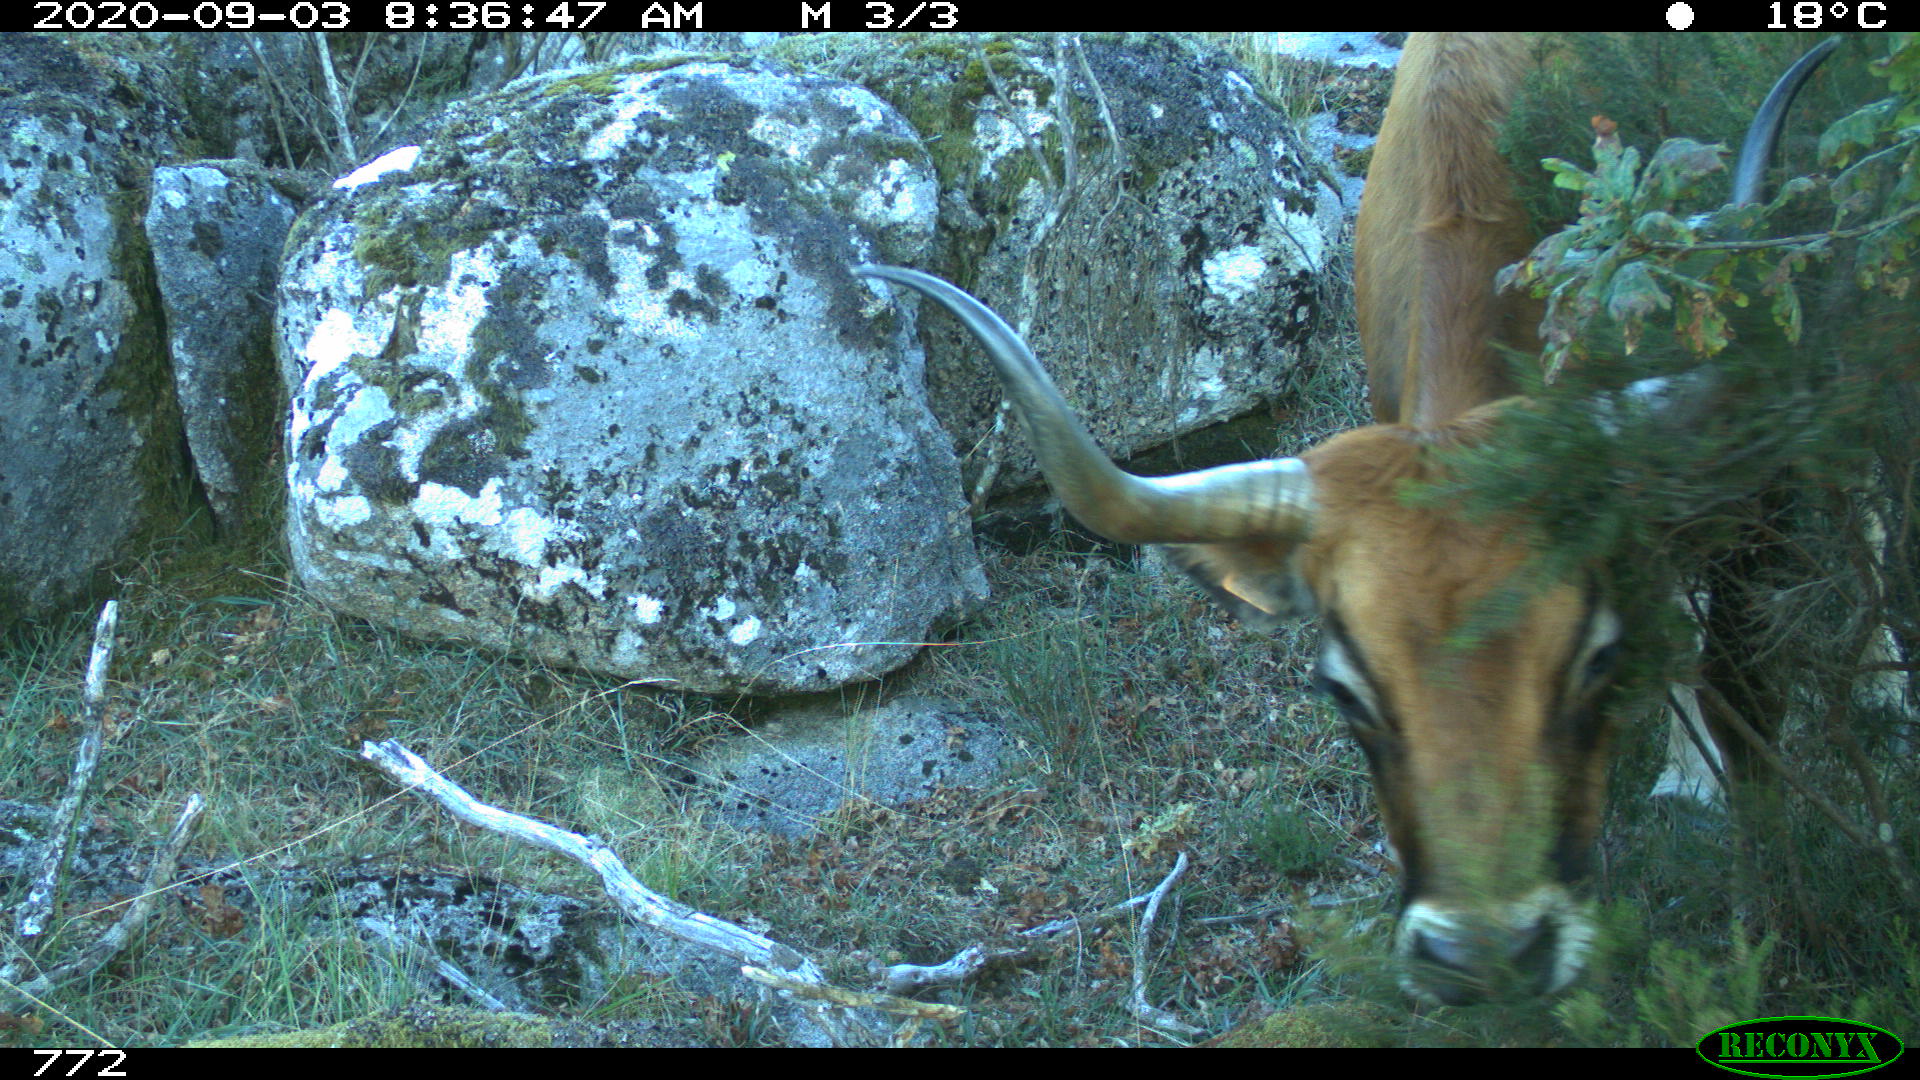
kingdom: Animalia
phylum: Chordata
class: Mammalia
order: Artiodactyla
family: Bovidae
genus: Bos
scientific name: Bos taurus
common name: Domesticated cattle
